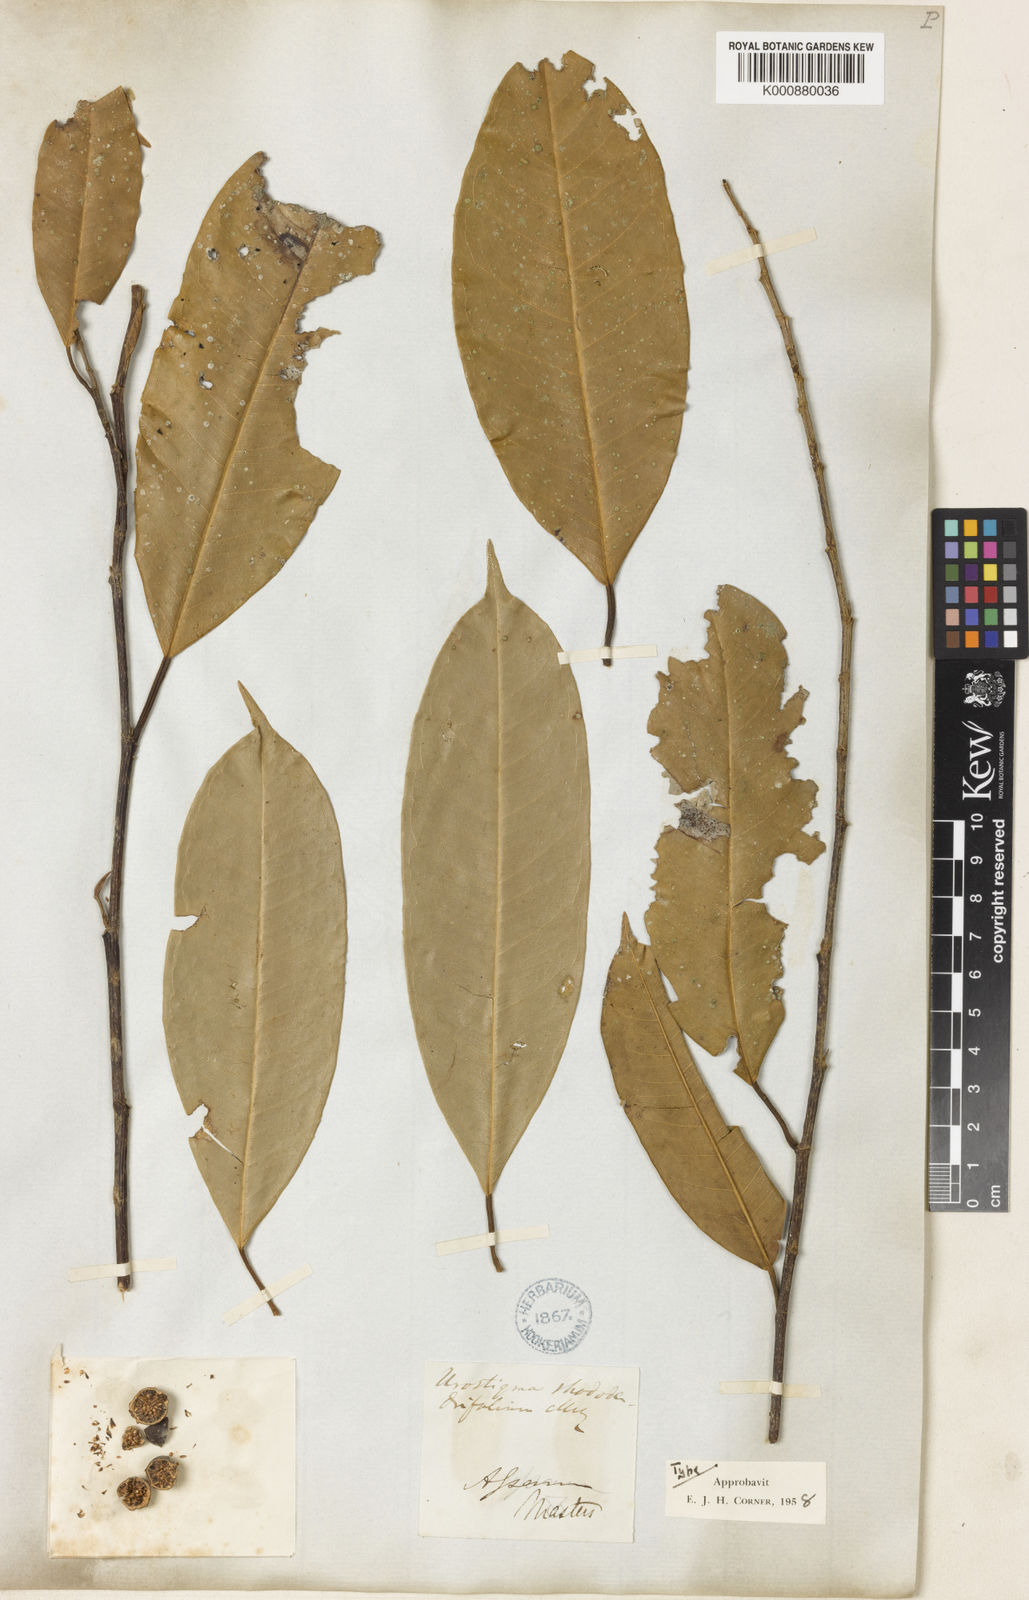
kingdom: Plantae
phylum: Tracheophyta
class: Magnoliopsida
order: Rosales
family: Moraceae
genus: Ficus
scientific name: Ficus maclellandii
